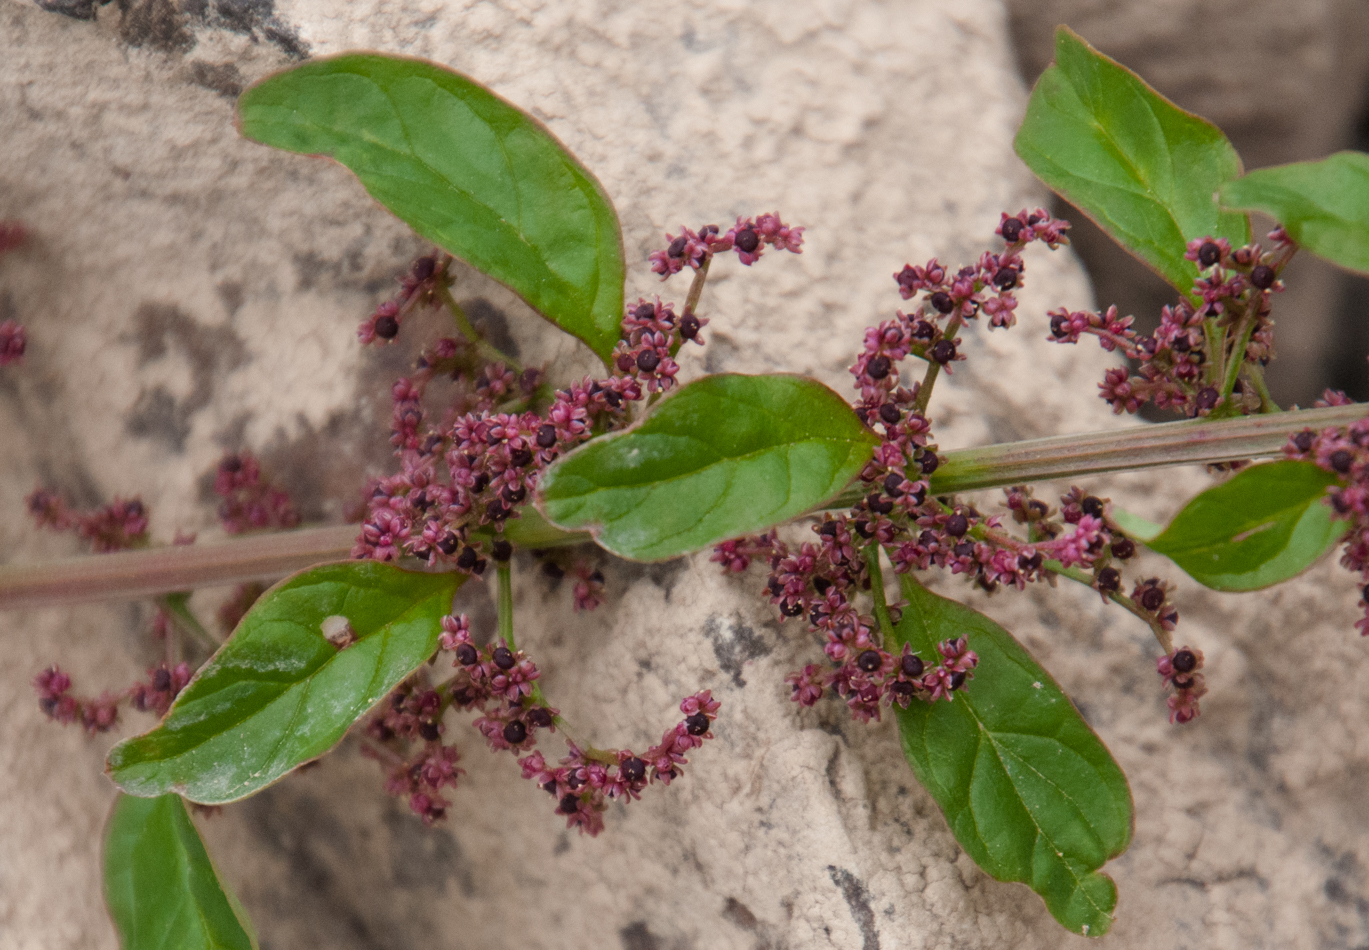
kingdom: Plantae
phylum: Tracheophyta
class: Magnoliopsida
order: Caryophyllales
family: Amaranthaceae
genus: Chenopodium
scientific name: Chenopodium album
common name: Fat-hen
